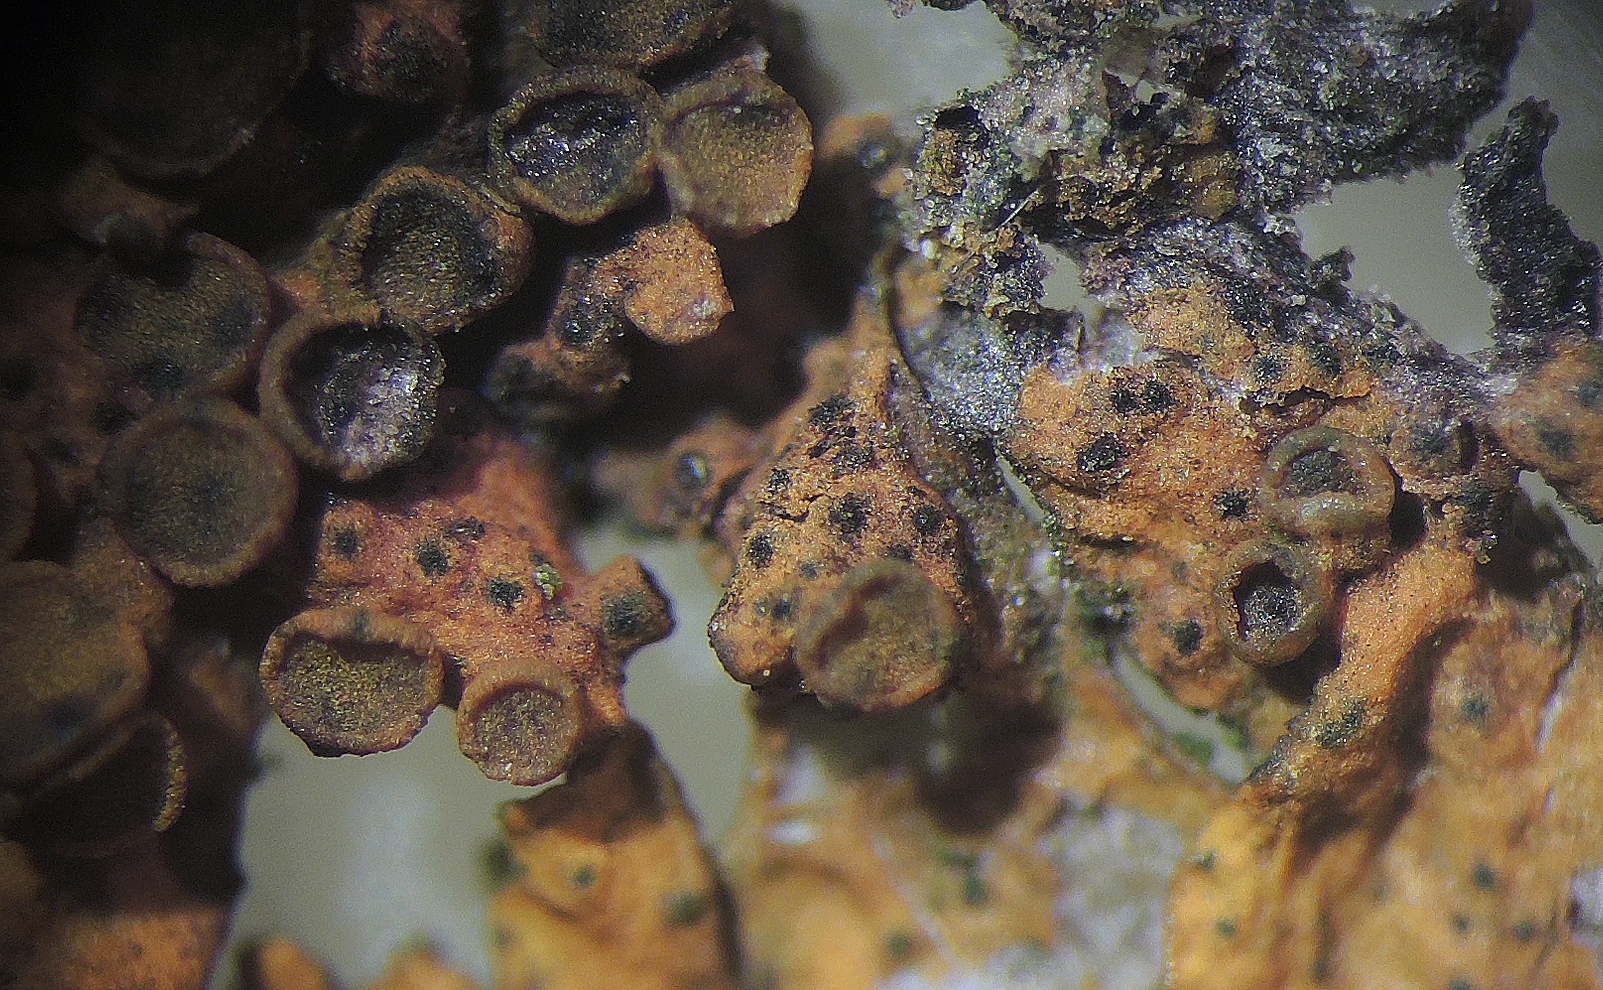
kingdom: Fungi
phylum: Ascomycota
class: Dothideomycetes
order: Pleosporales
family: Phaeosphaeriaceae
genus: Didymocyrtis
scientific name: Didymocyrtis slaptonensis
